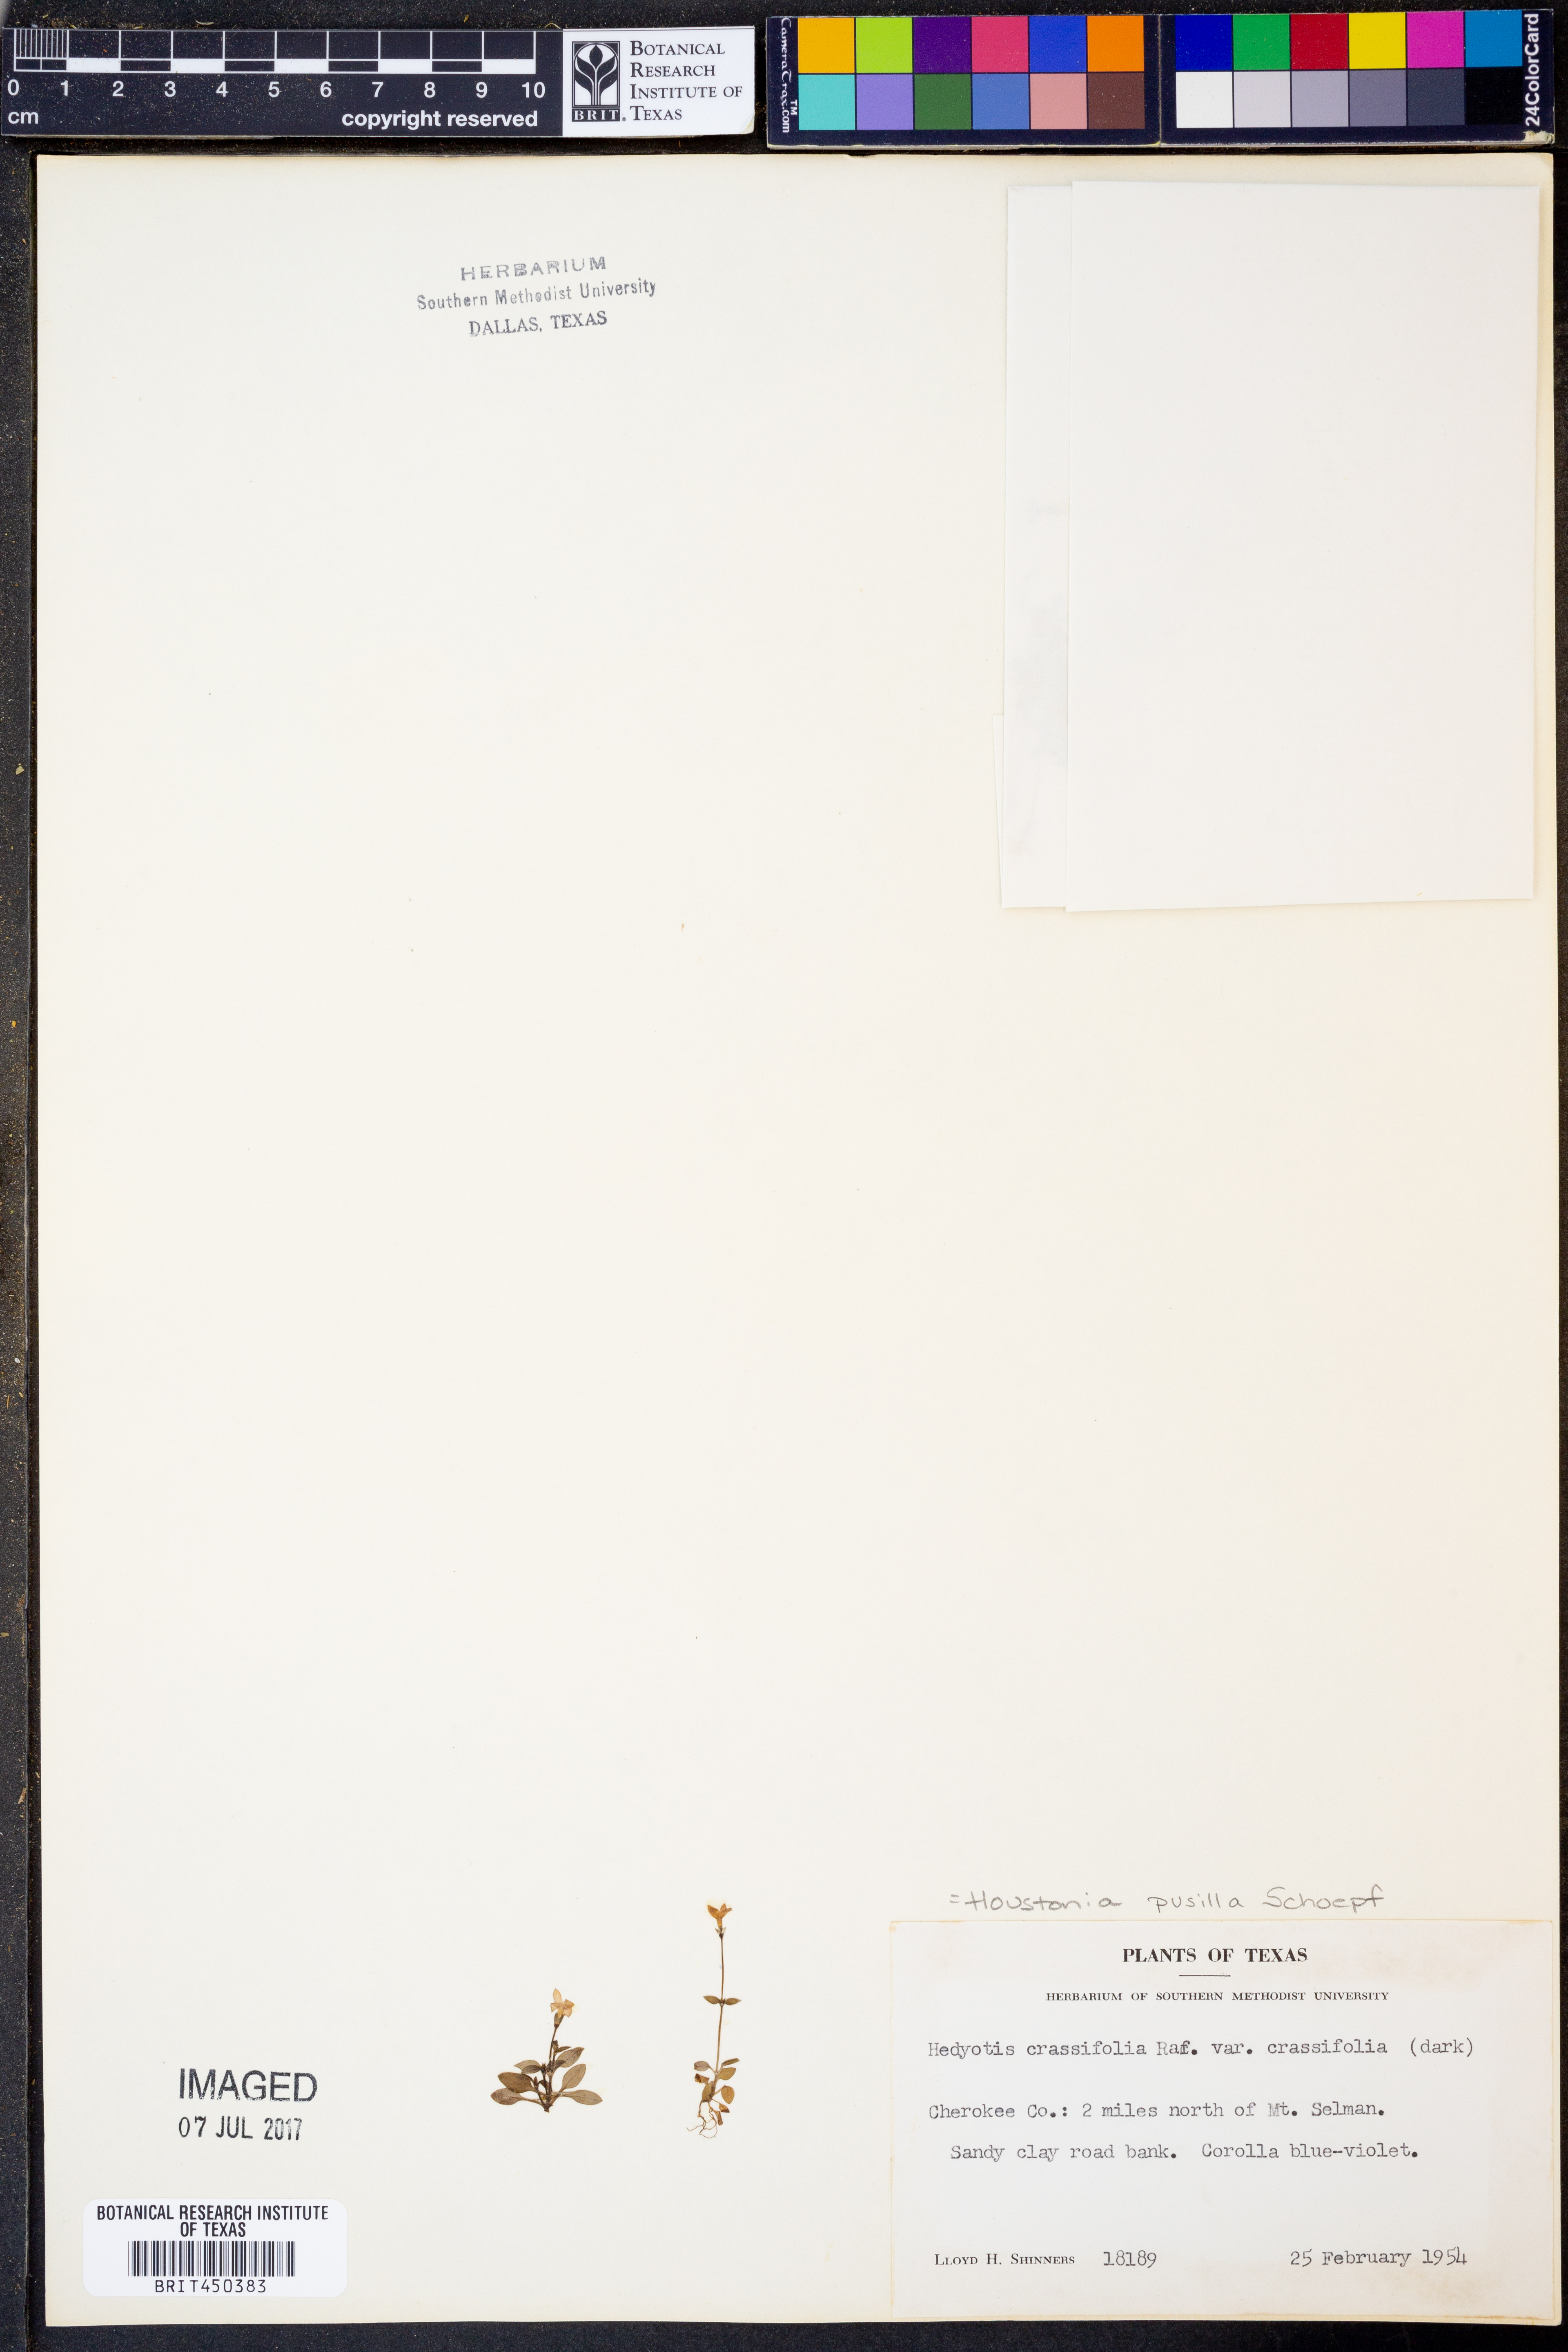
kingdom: Plantae
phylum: Tracheophyta
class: Magnoliopsida
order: Gentianales
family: Rubiaceae
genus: Houstonia
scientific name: Houstonia pusilla
